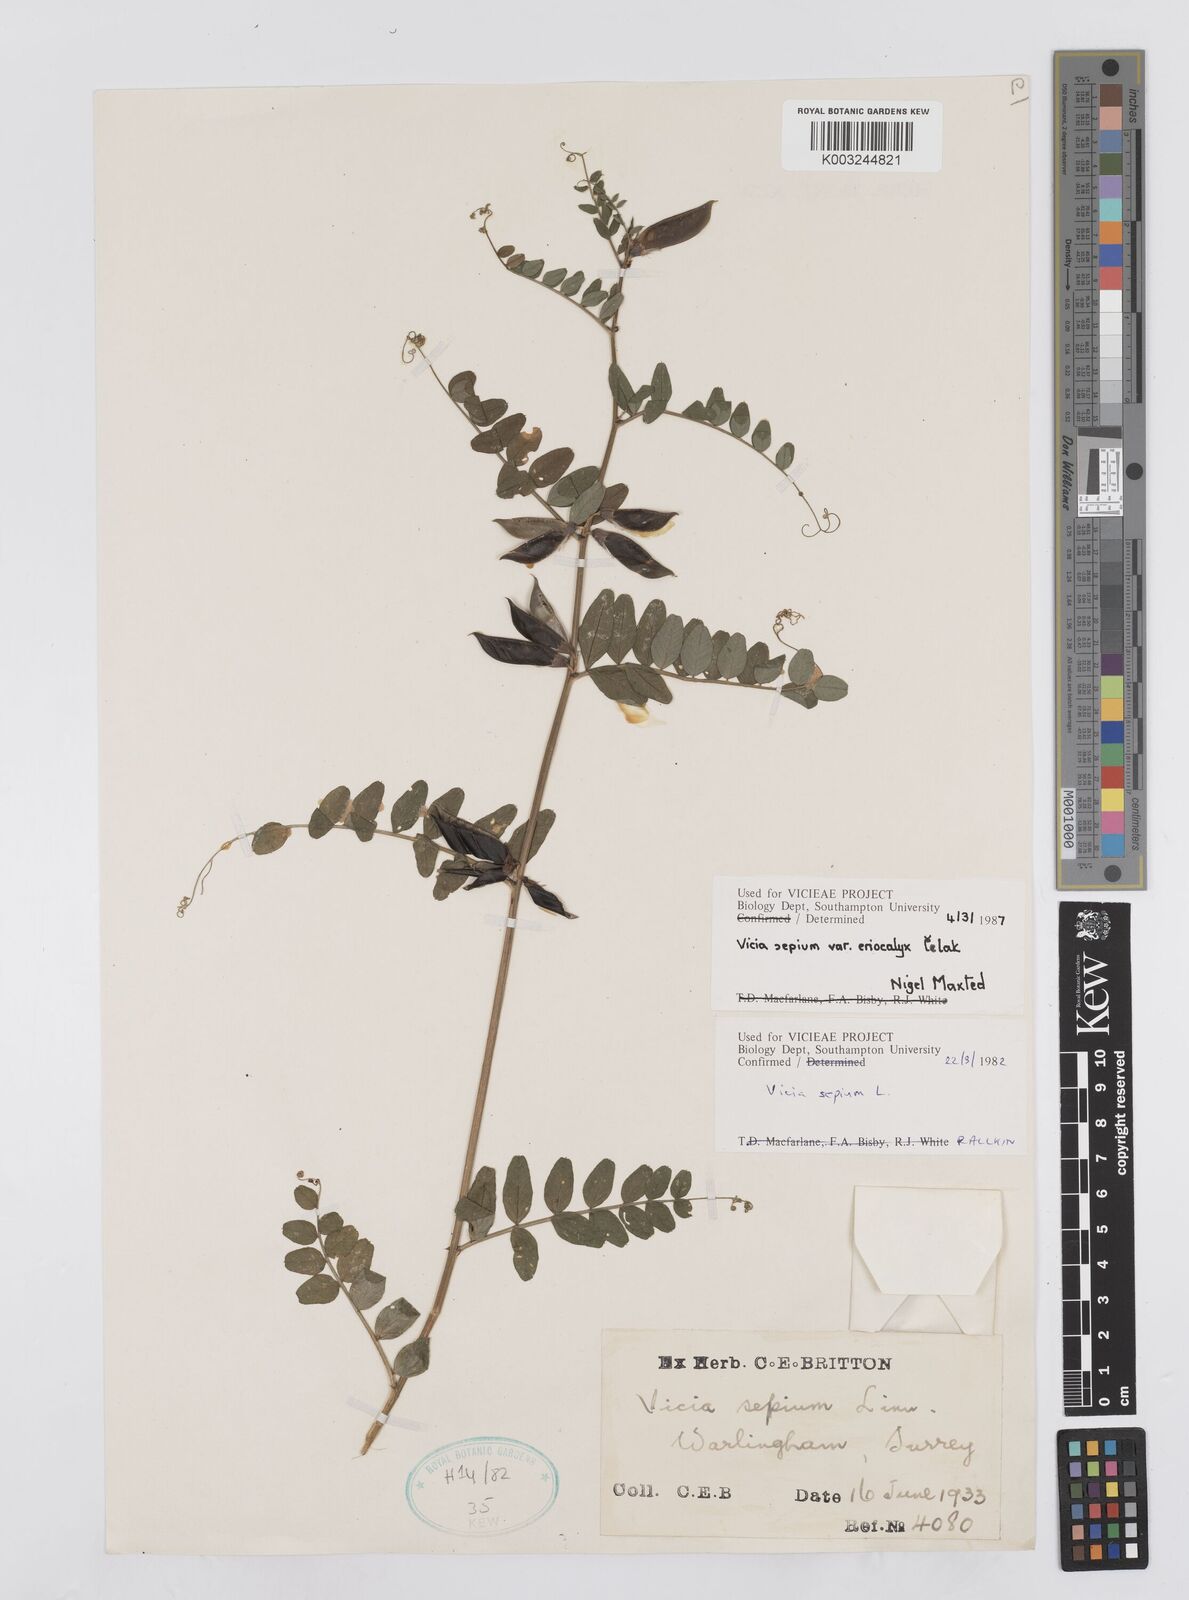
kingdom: Plantae
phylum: Tracheophyta
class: Magnoliopsida
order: Fabales
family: Fabaceae
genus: Vicia
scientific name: Vicia sepium
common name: Bush vetch
